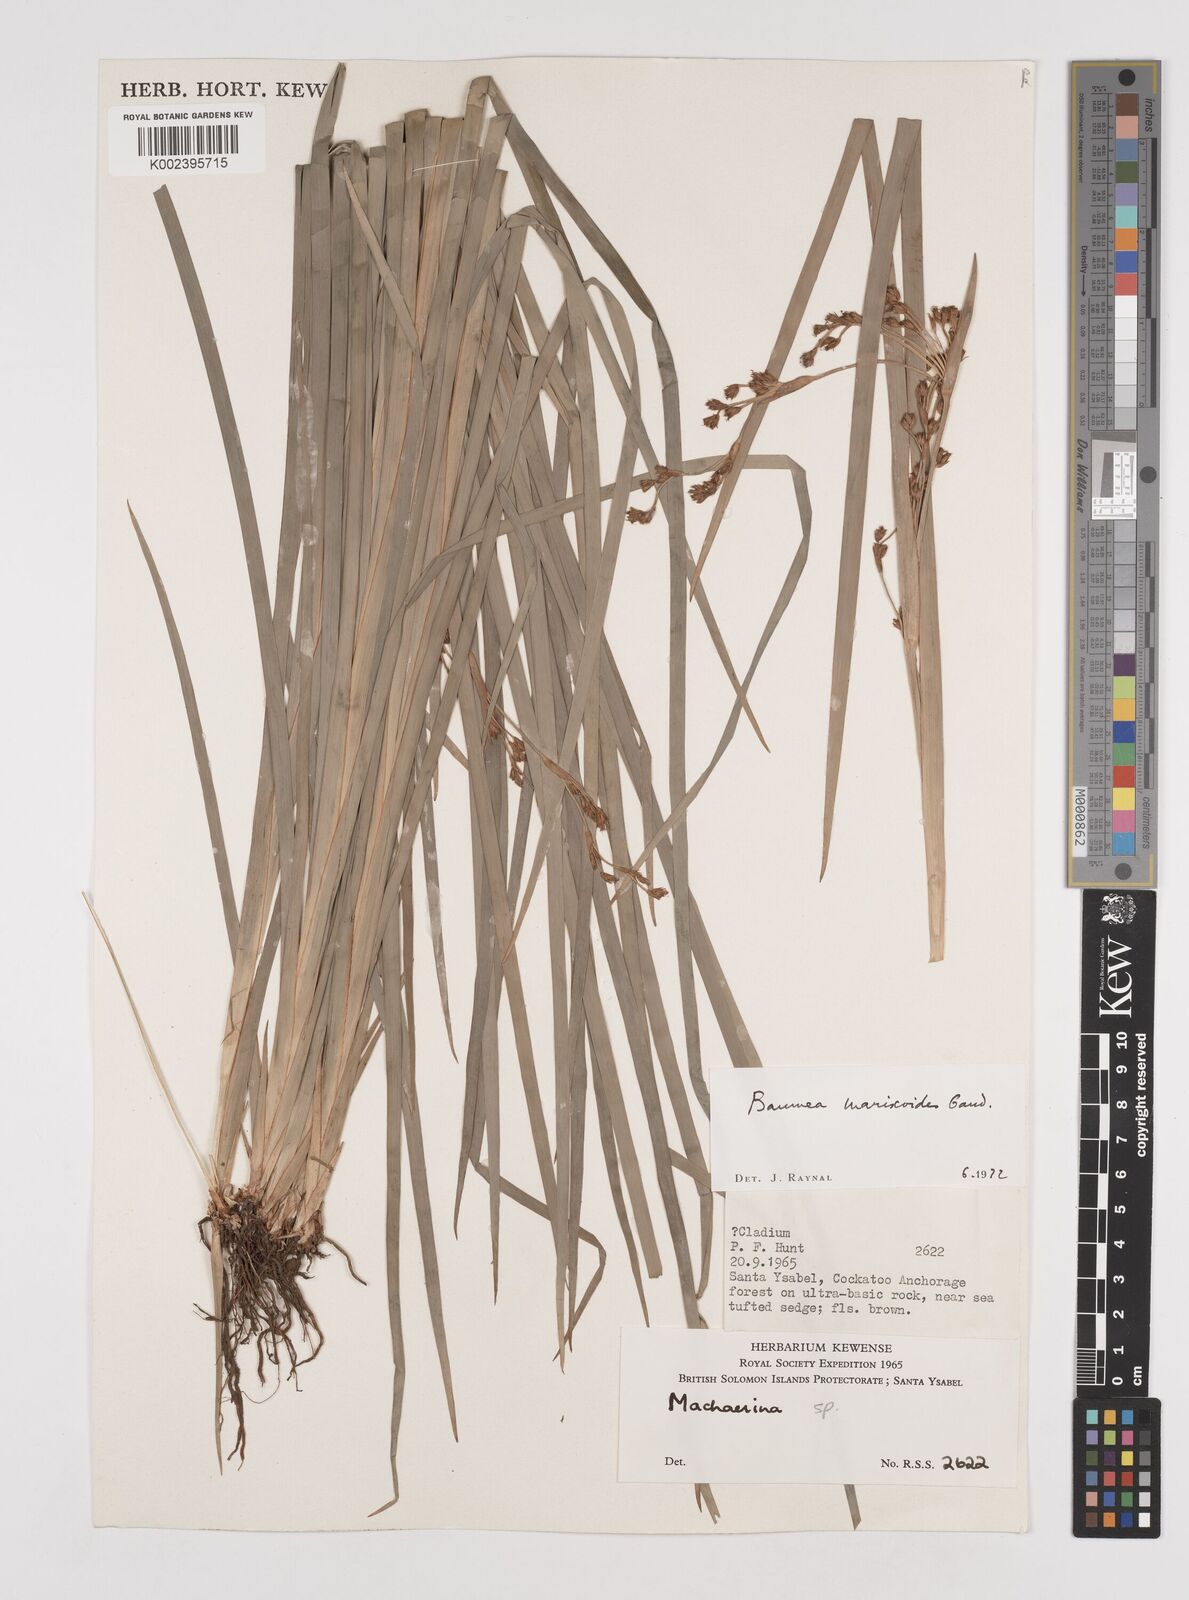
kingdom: Plantae
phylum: Tracheophyta
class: Liliopsida
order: Poales
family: Cyperaceae
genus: Machaerina
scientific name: Machaerina mariscoides
